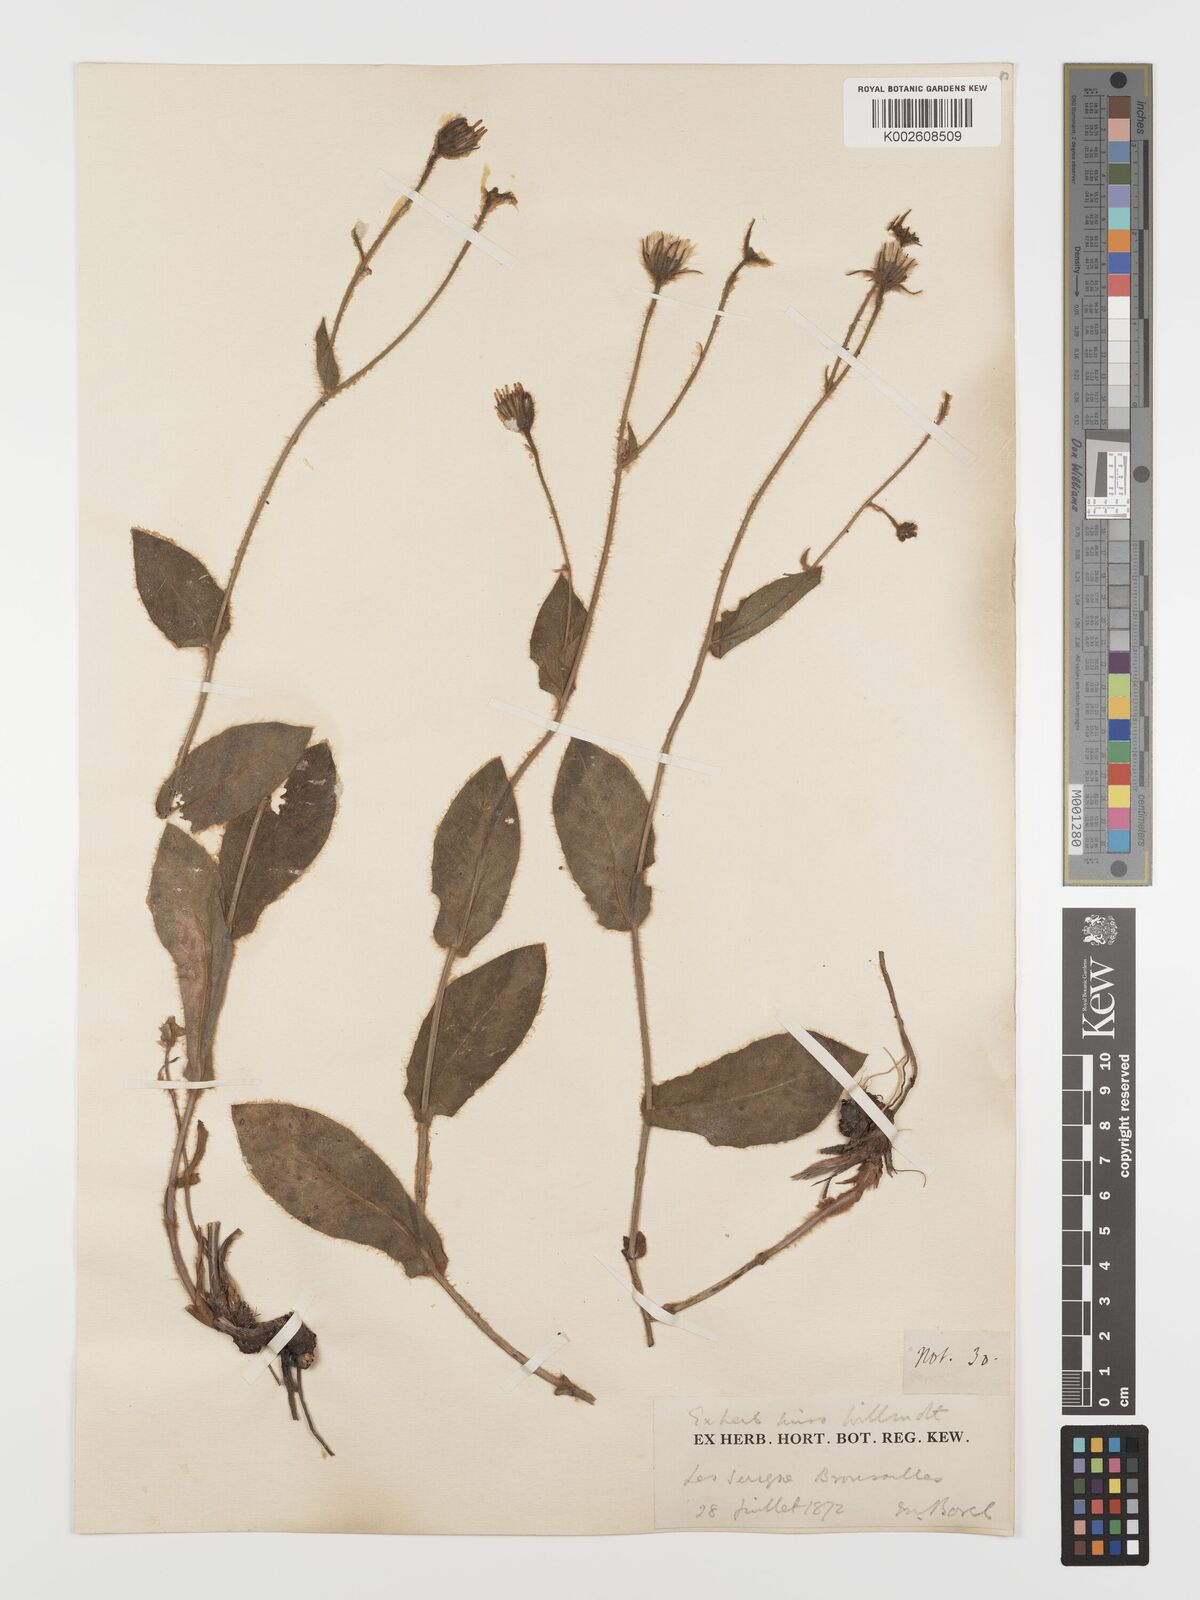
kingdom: Plantae
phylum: Tracheophyta
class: Magnoliopsida
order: Asterales
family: Asteraceae
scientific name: Asteraceae
